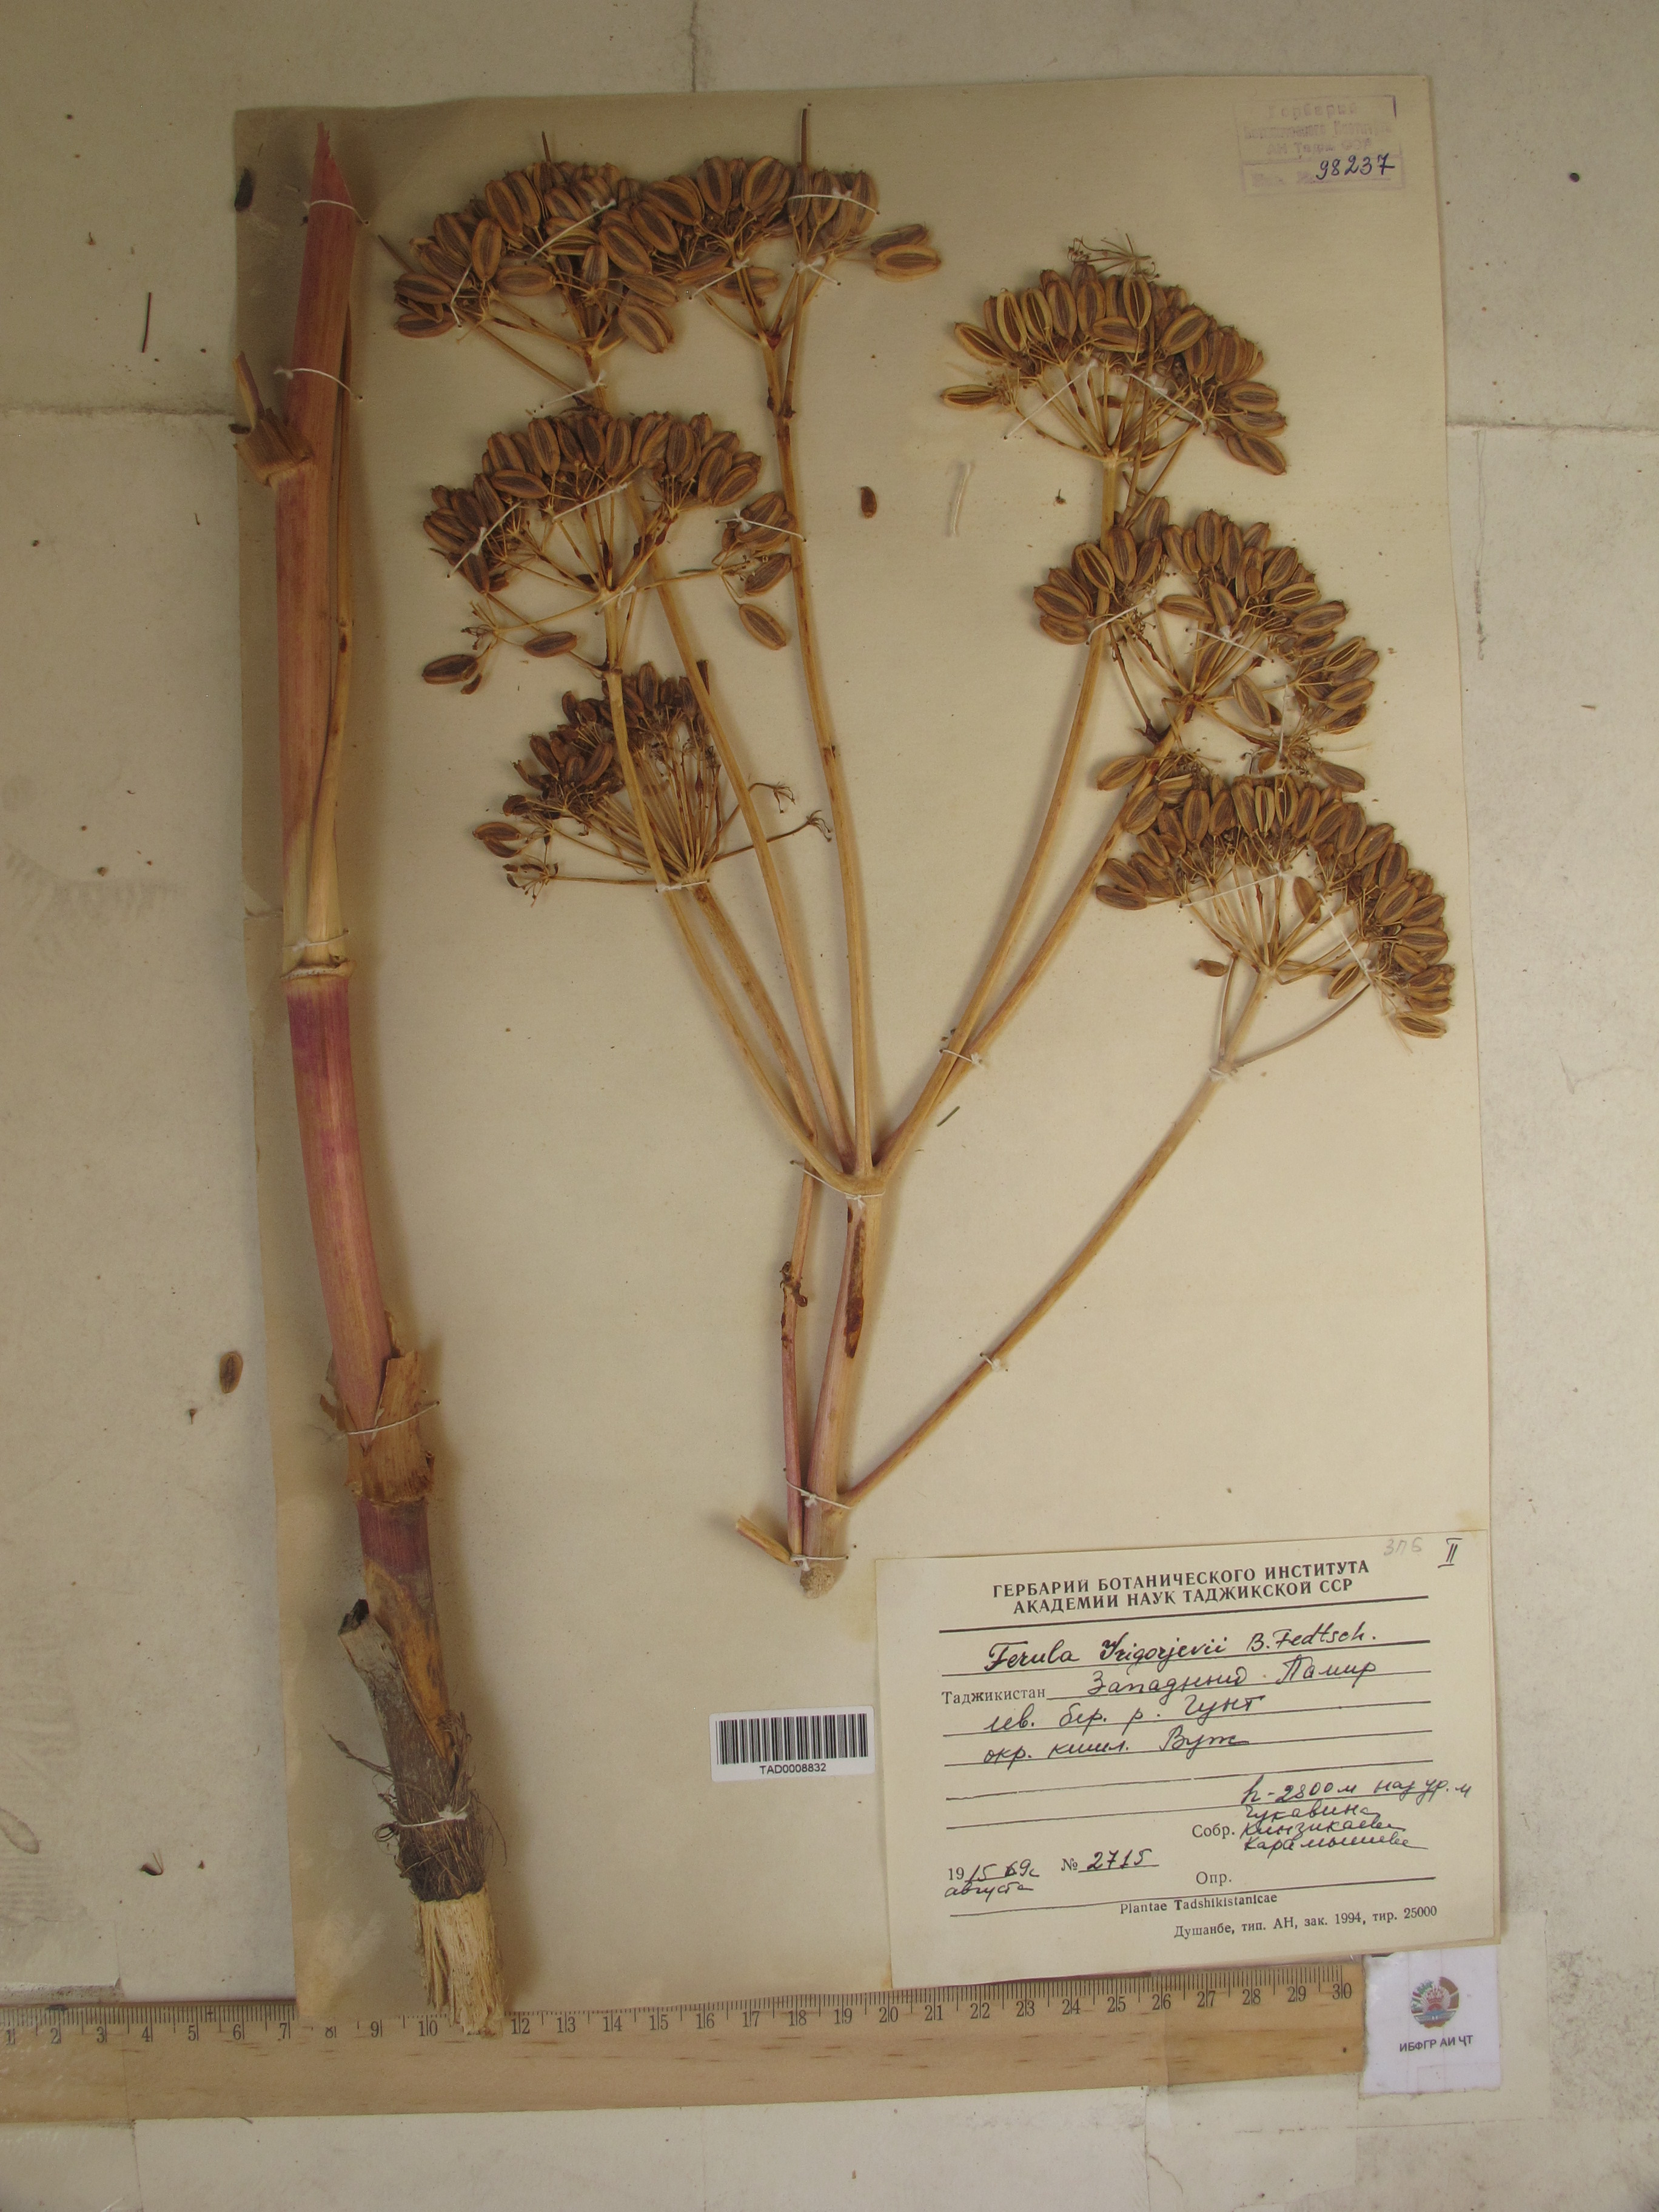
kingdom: Plantae
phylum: Tracheophyta
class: Magnoliopsida
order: Apiales
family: Apiaceae
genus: Ferula
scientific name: Ferula grigoriewii
